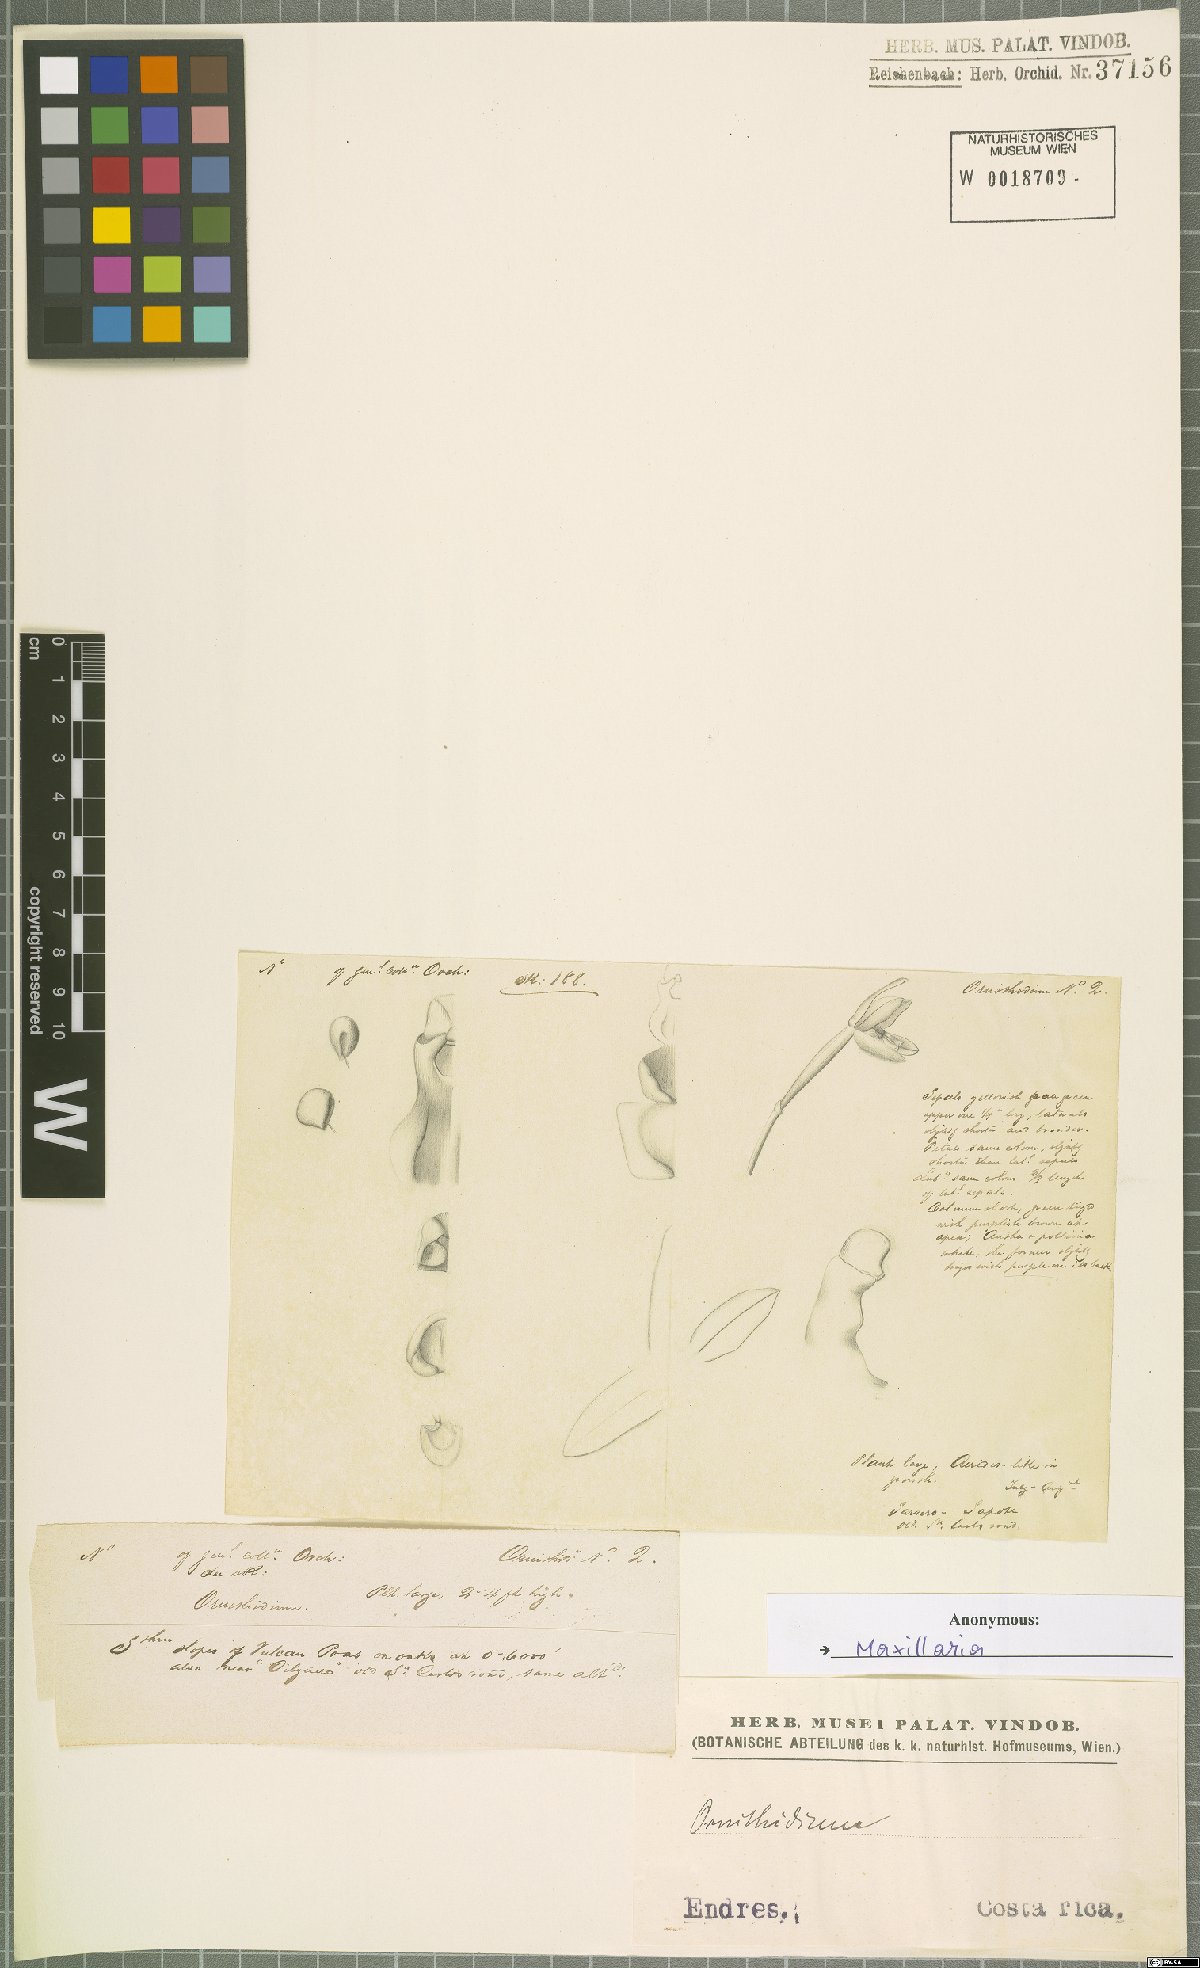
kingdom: Plantae
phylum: Tracheophyta
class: Liliopsida
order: Asparagales
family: Orchidaceae
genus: Maxillaria
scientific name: Maxillaria
